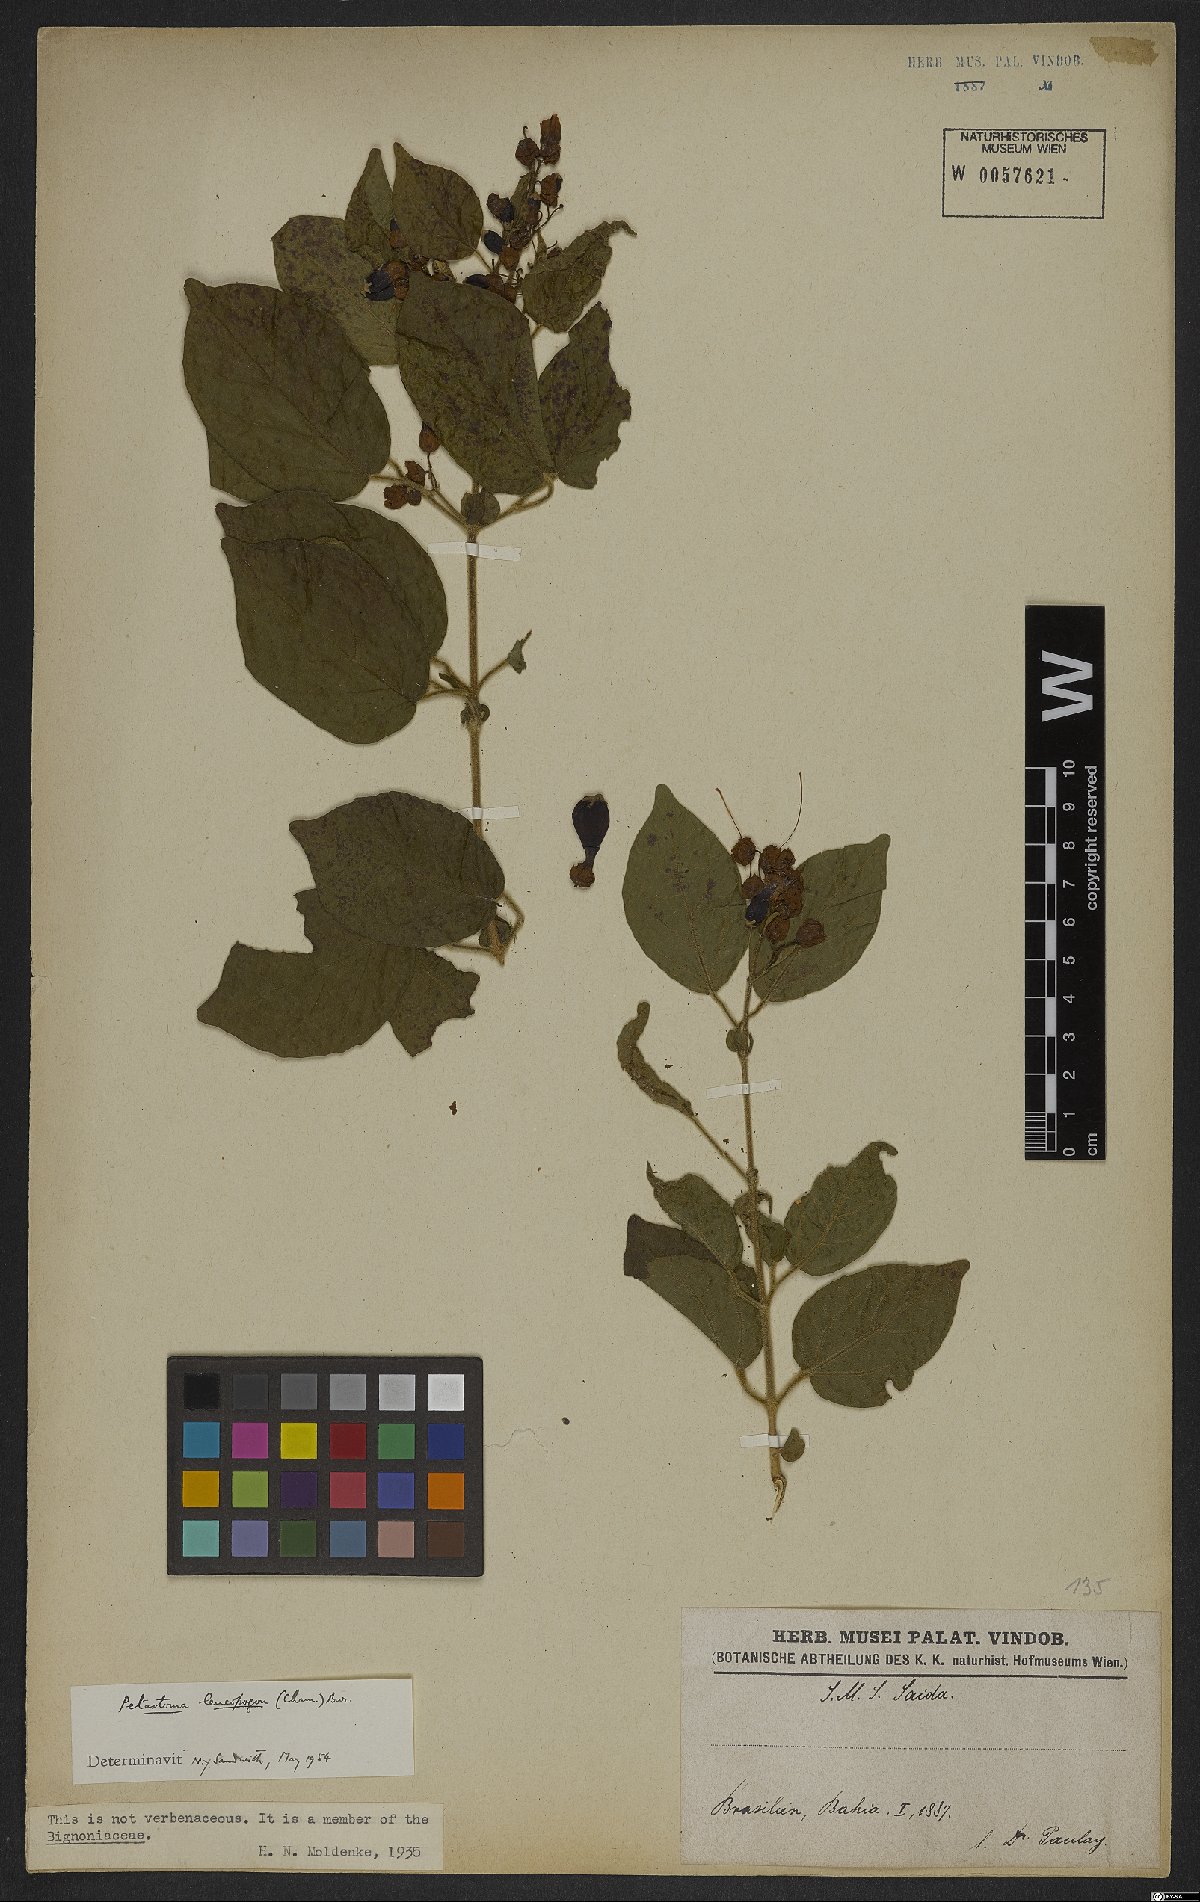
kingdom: Plantae
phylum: Tracheophyta
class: Magnoliopsida
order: Lamiales
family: Bignoniaceae
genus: Fridericia
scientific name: Fridericia leucopogon
